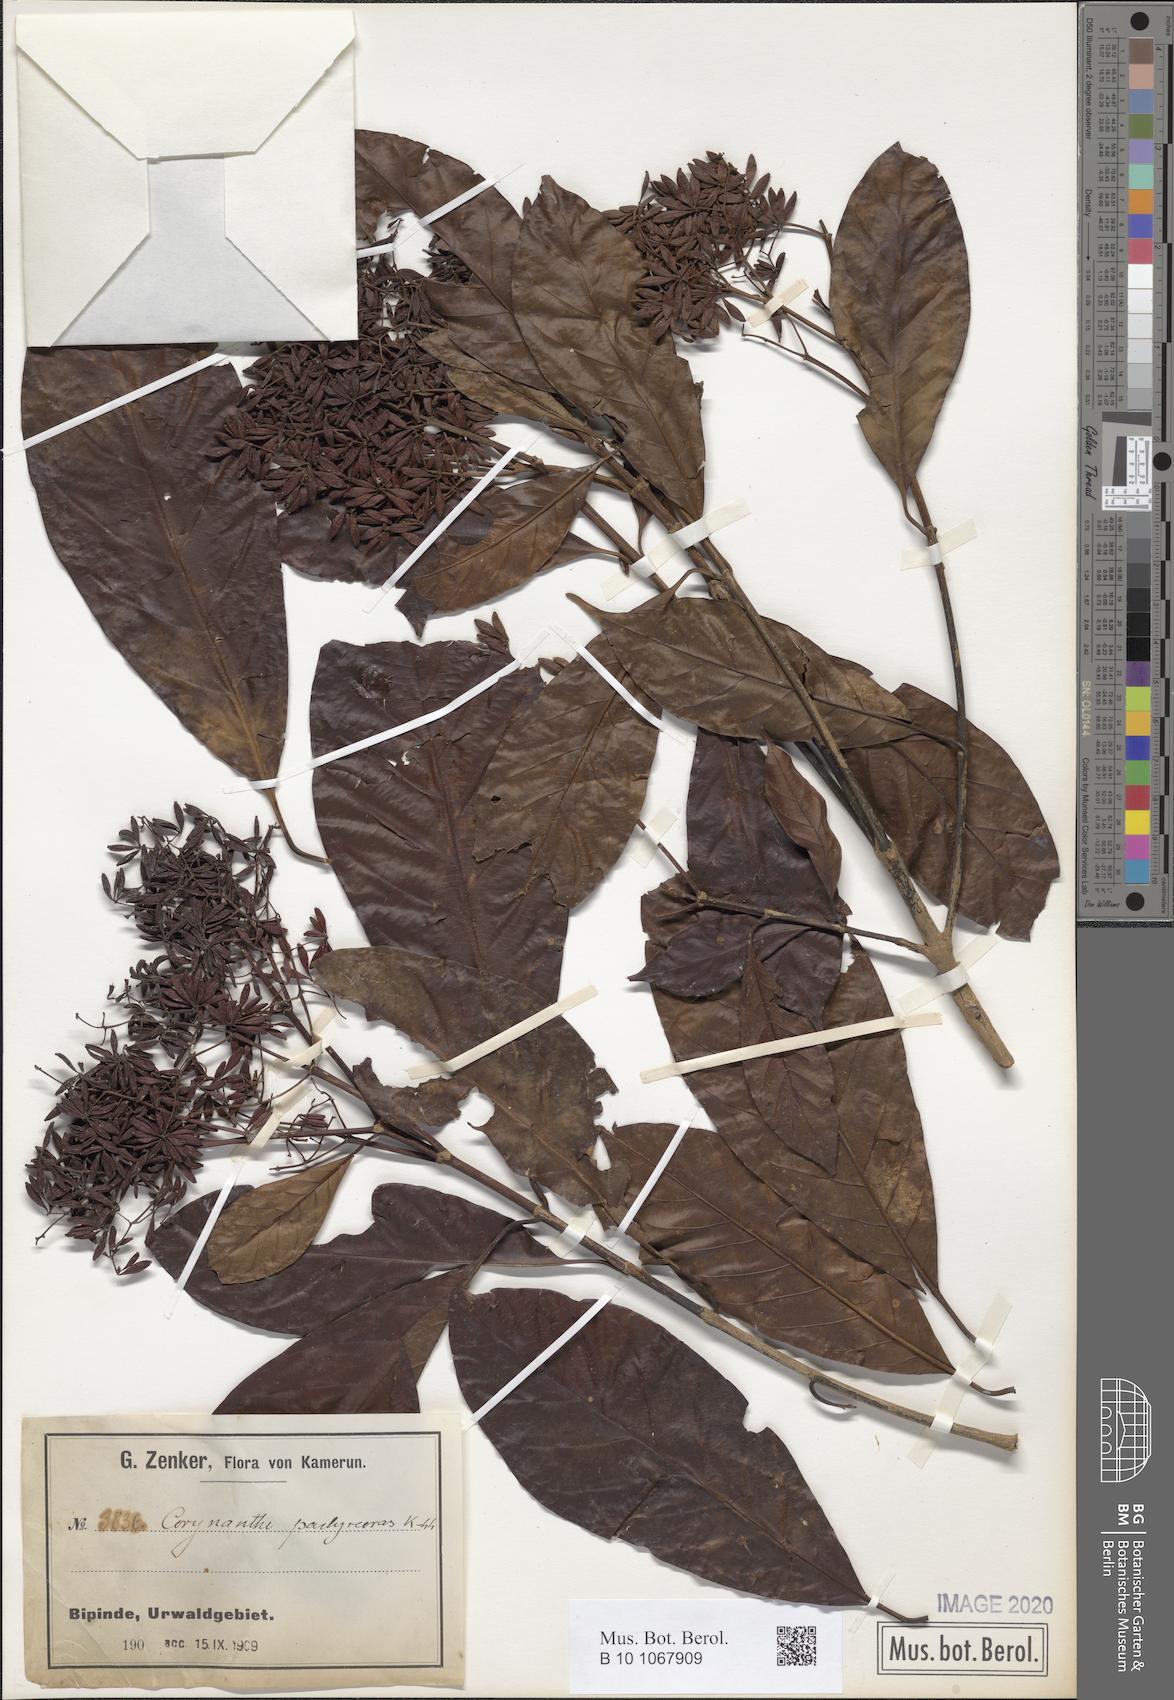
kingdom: Plantae
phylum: Tracheophyta
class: Magnoliopsida
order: Gentianales
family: Rubiaceae
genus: Corynanthe
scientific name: Corynanthe pachyceras
